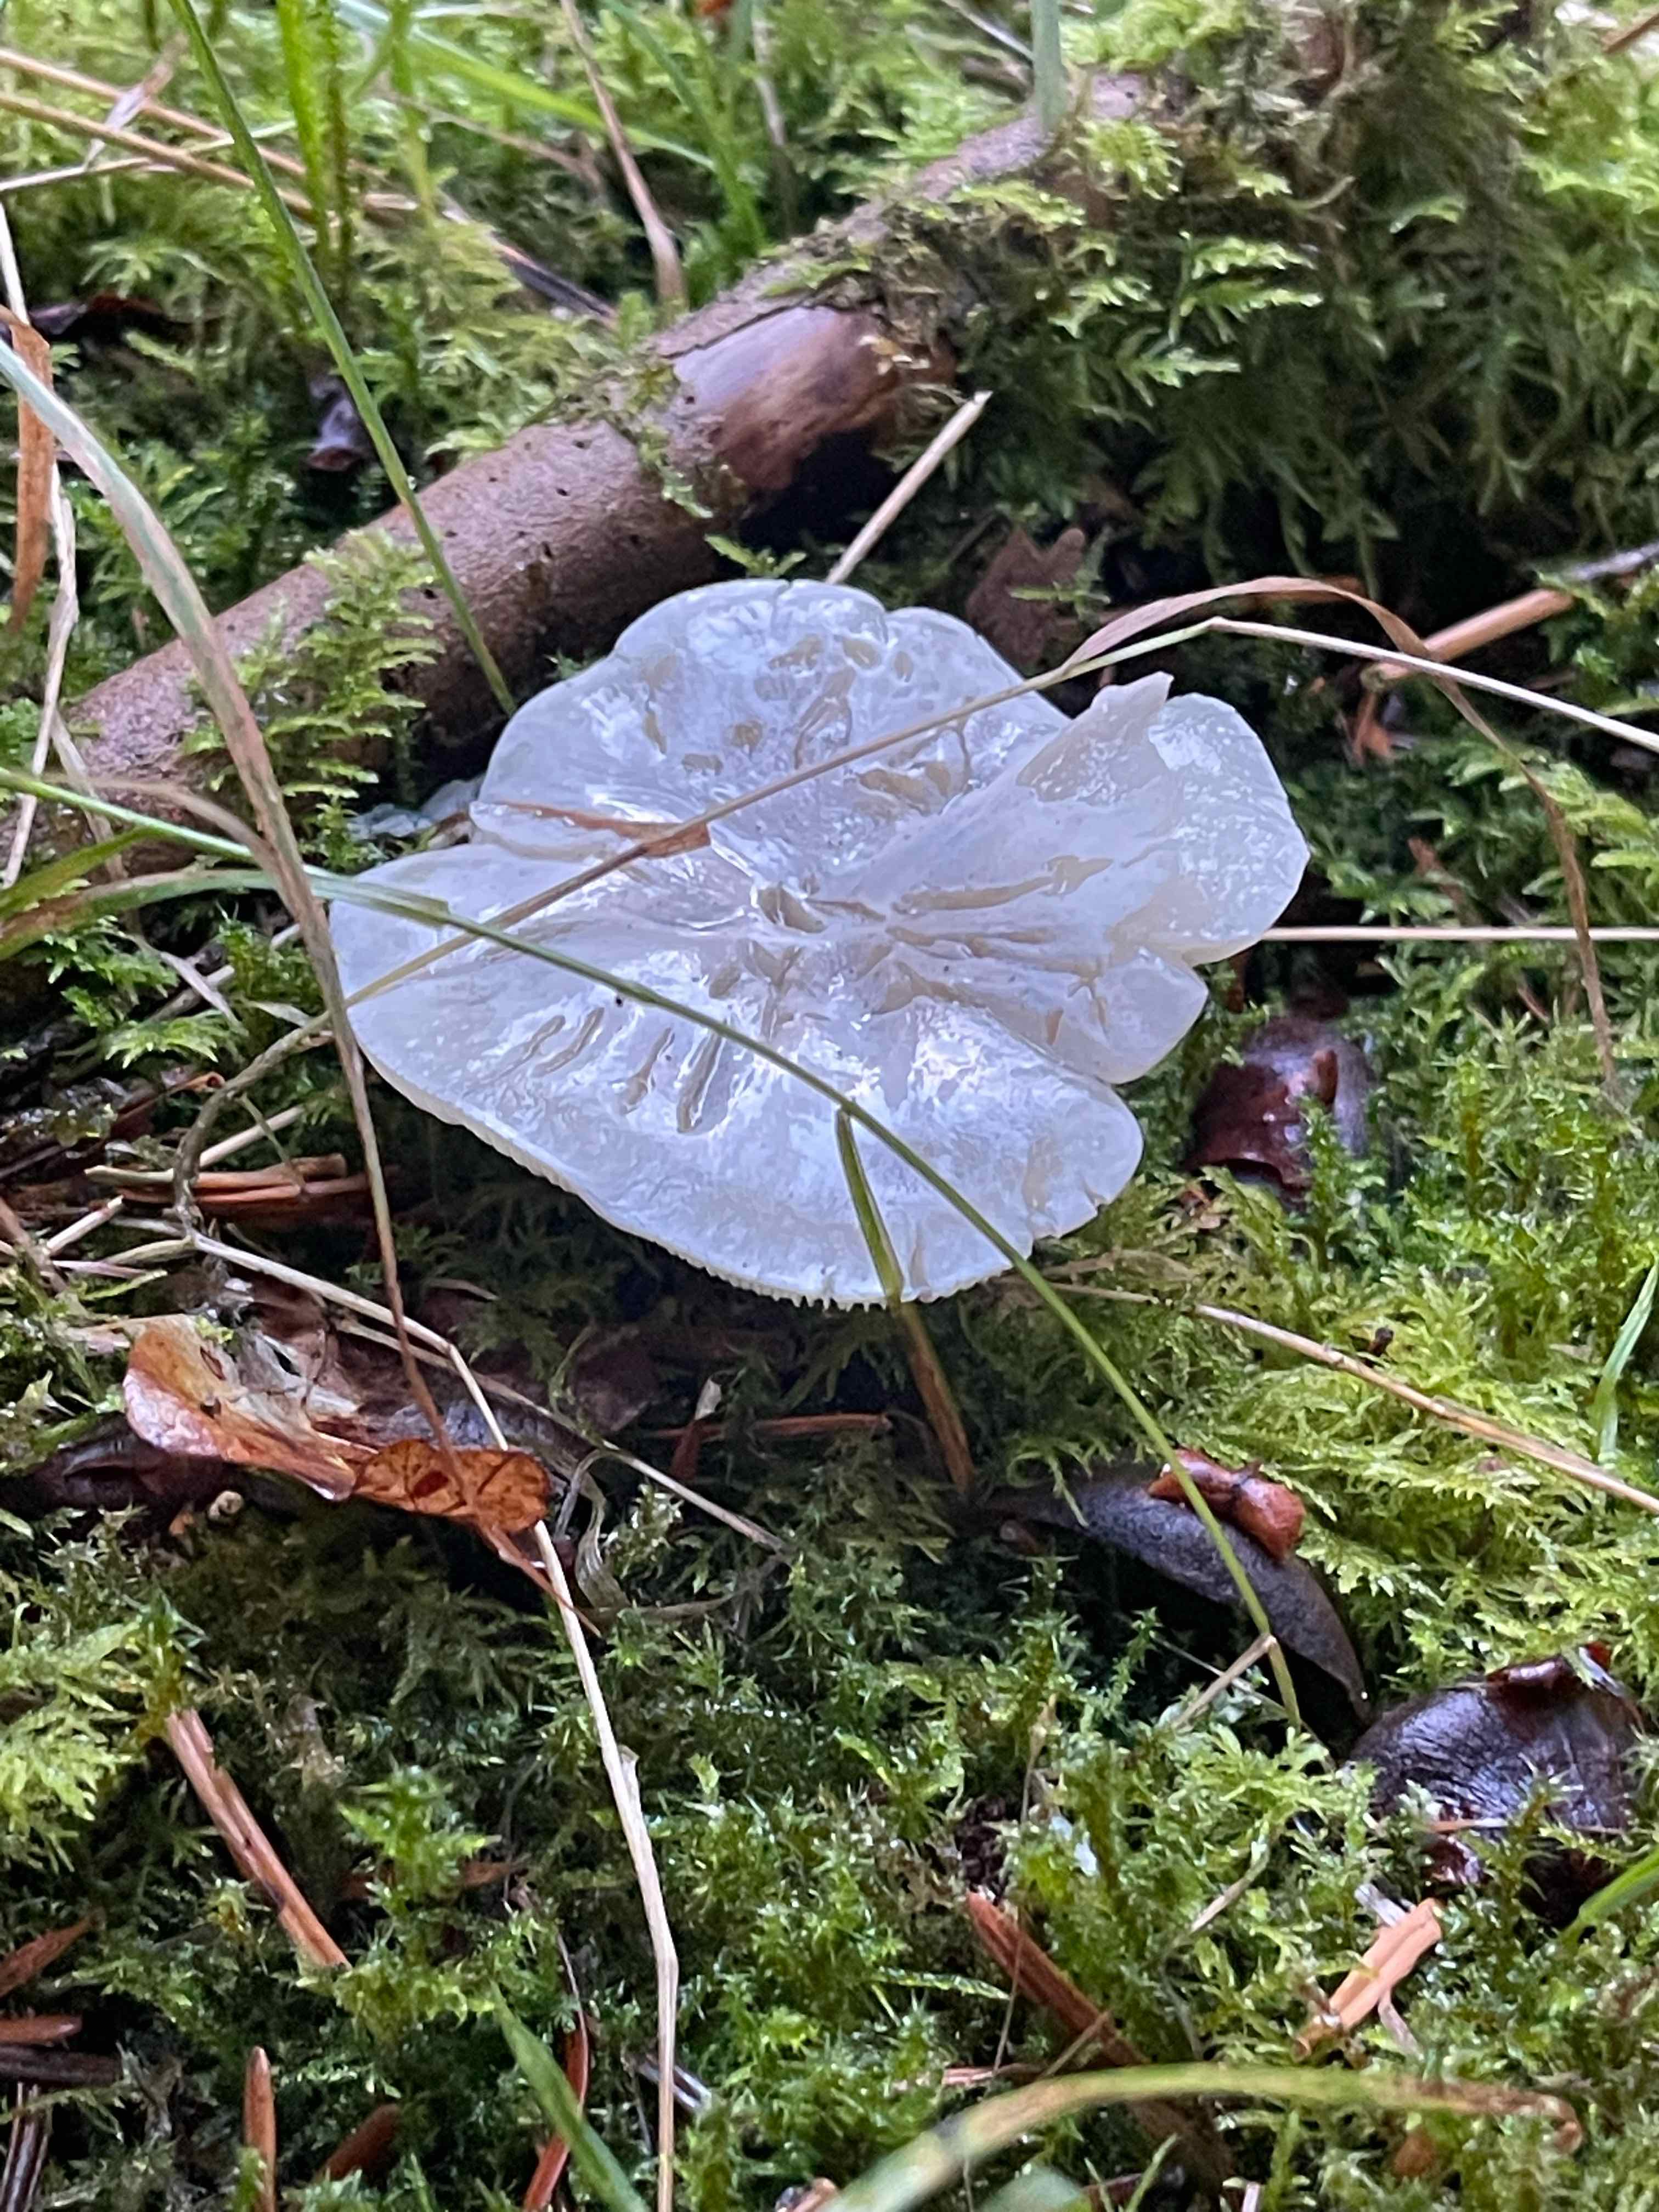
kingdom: Fungi
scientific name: Fungi
